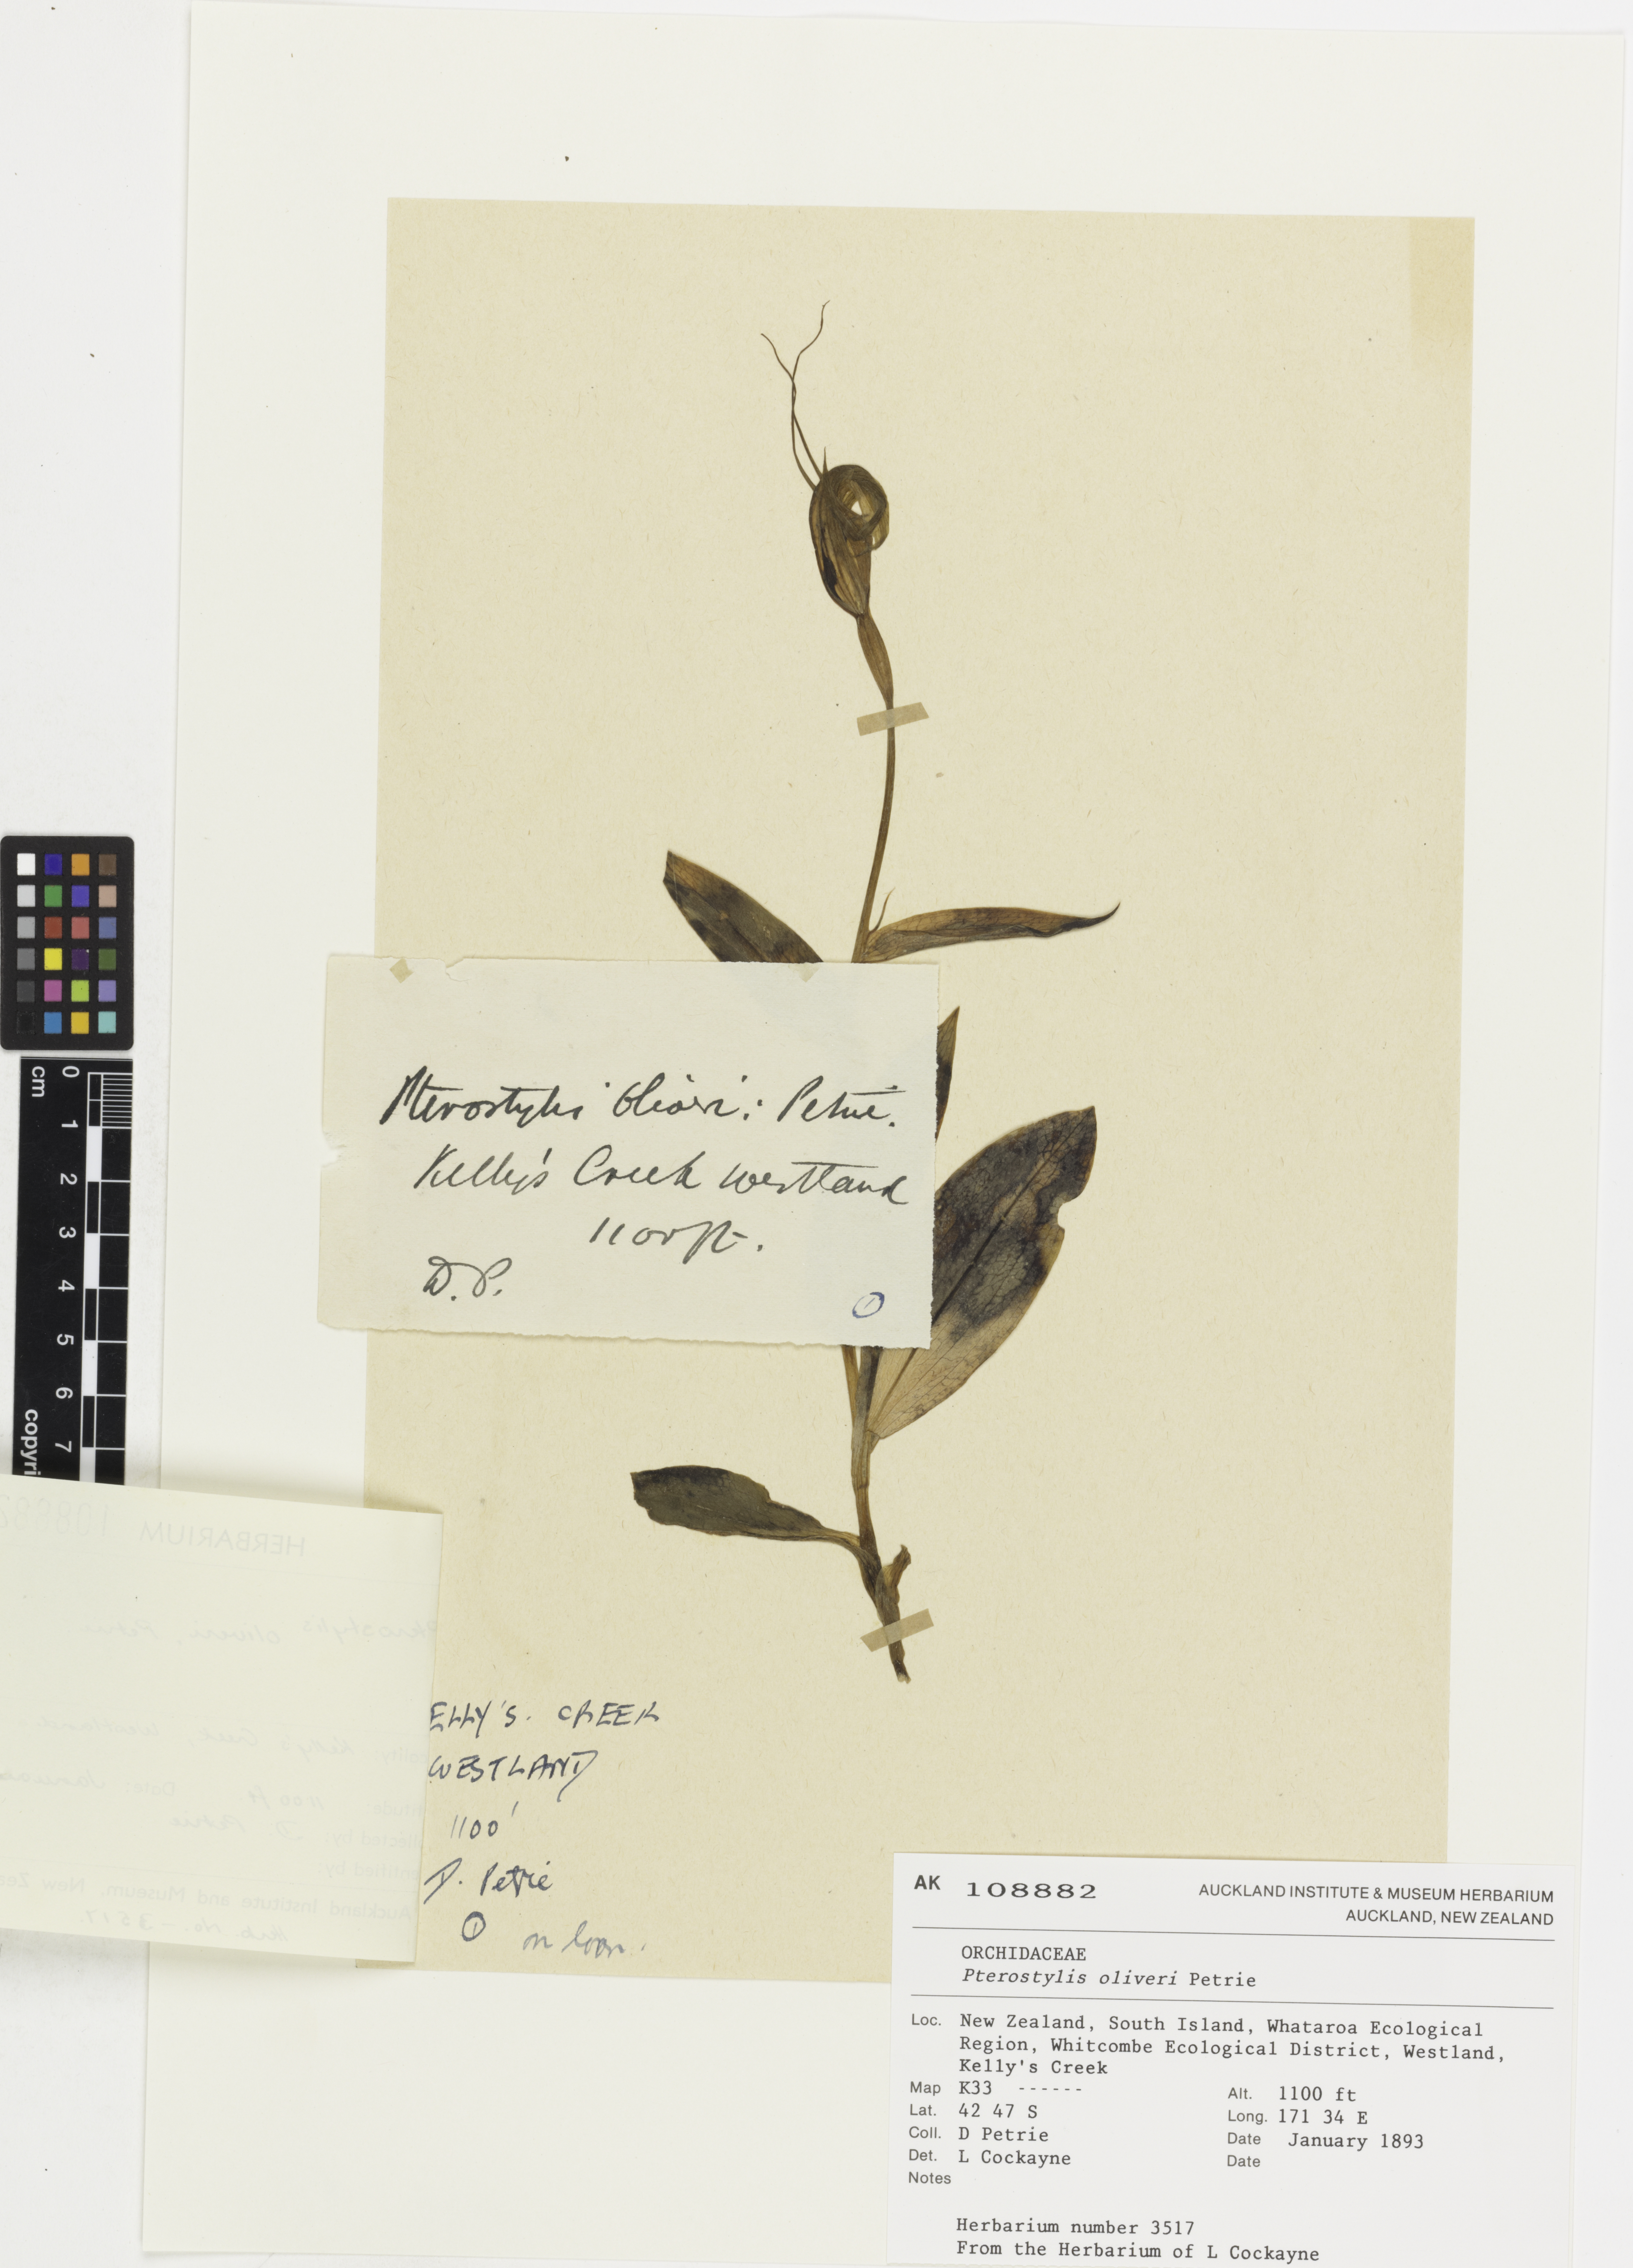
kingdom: Plantae
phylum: Tracheophyta
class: Liliopsida
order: Asparagales
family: Orchidaceae
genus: Pterostylis
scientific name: Pterostylis oliveri
